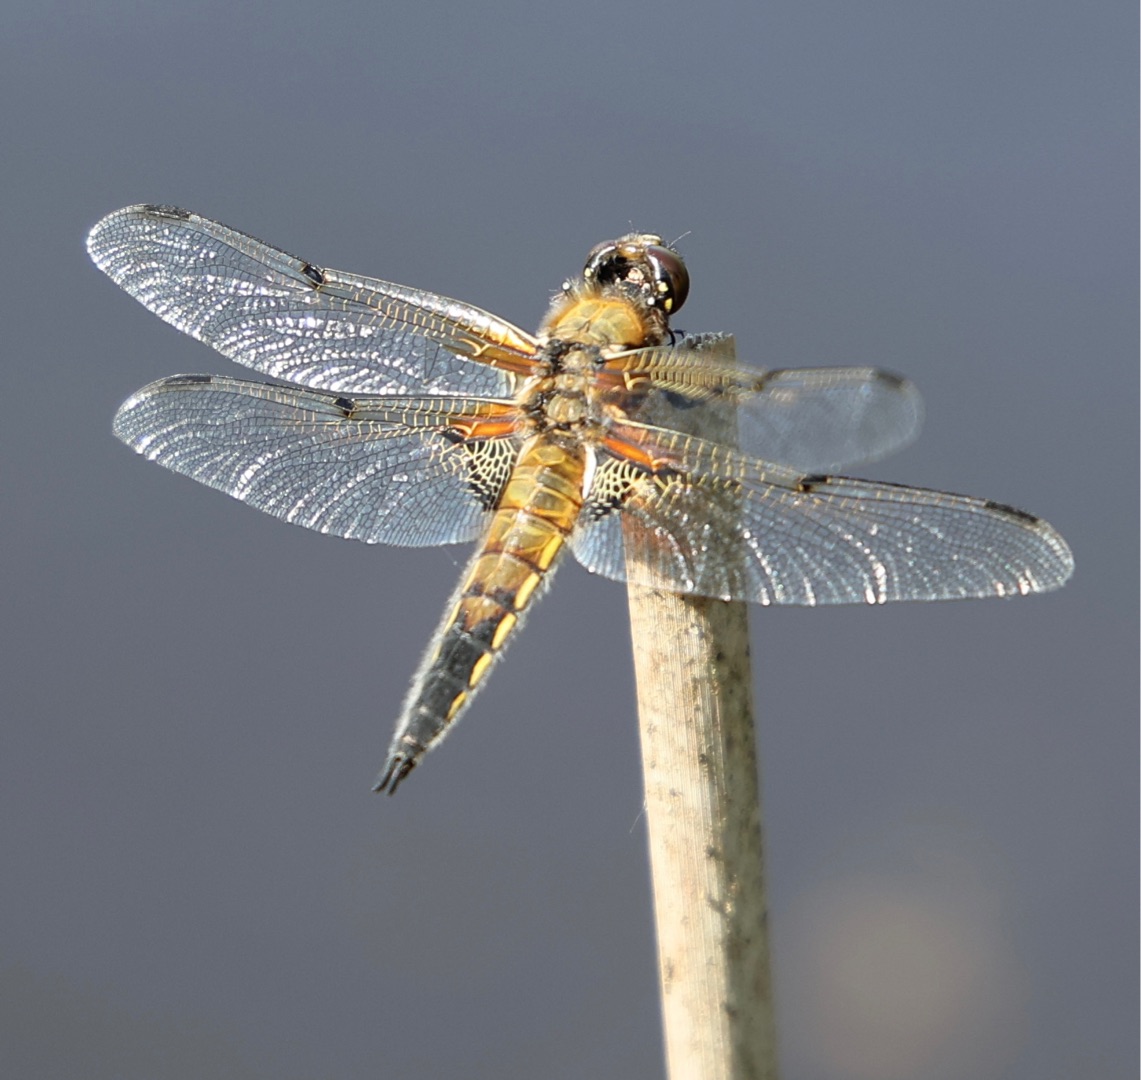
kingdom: Animalia
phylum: Arthropoda
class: Insecta
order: Odonata
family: Libellulidae
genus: Libellula
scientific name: Libellula quadrimaculata
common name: Fireplettet libel
